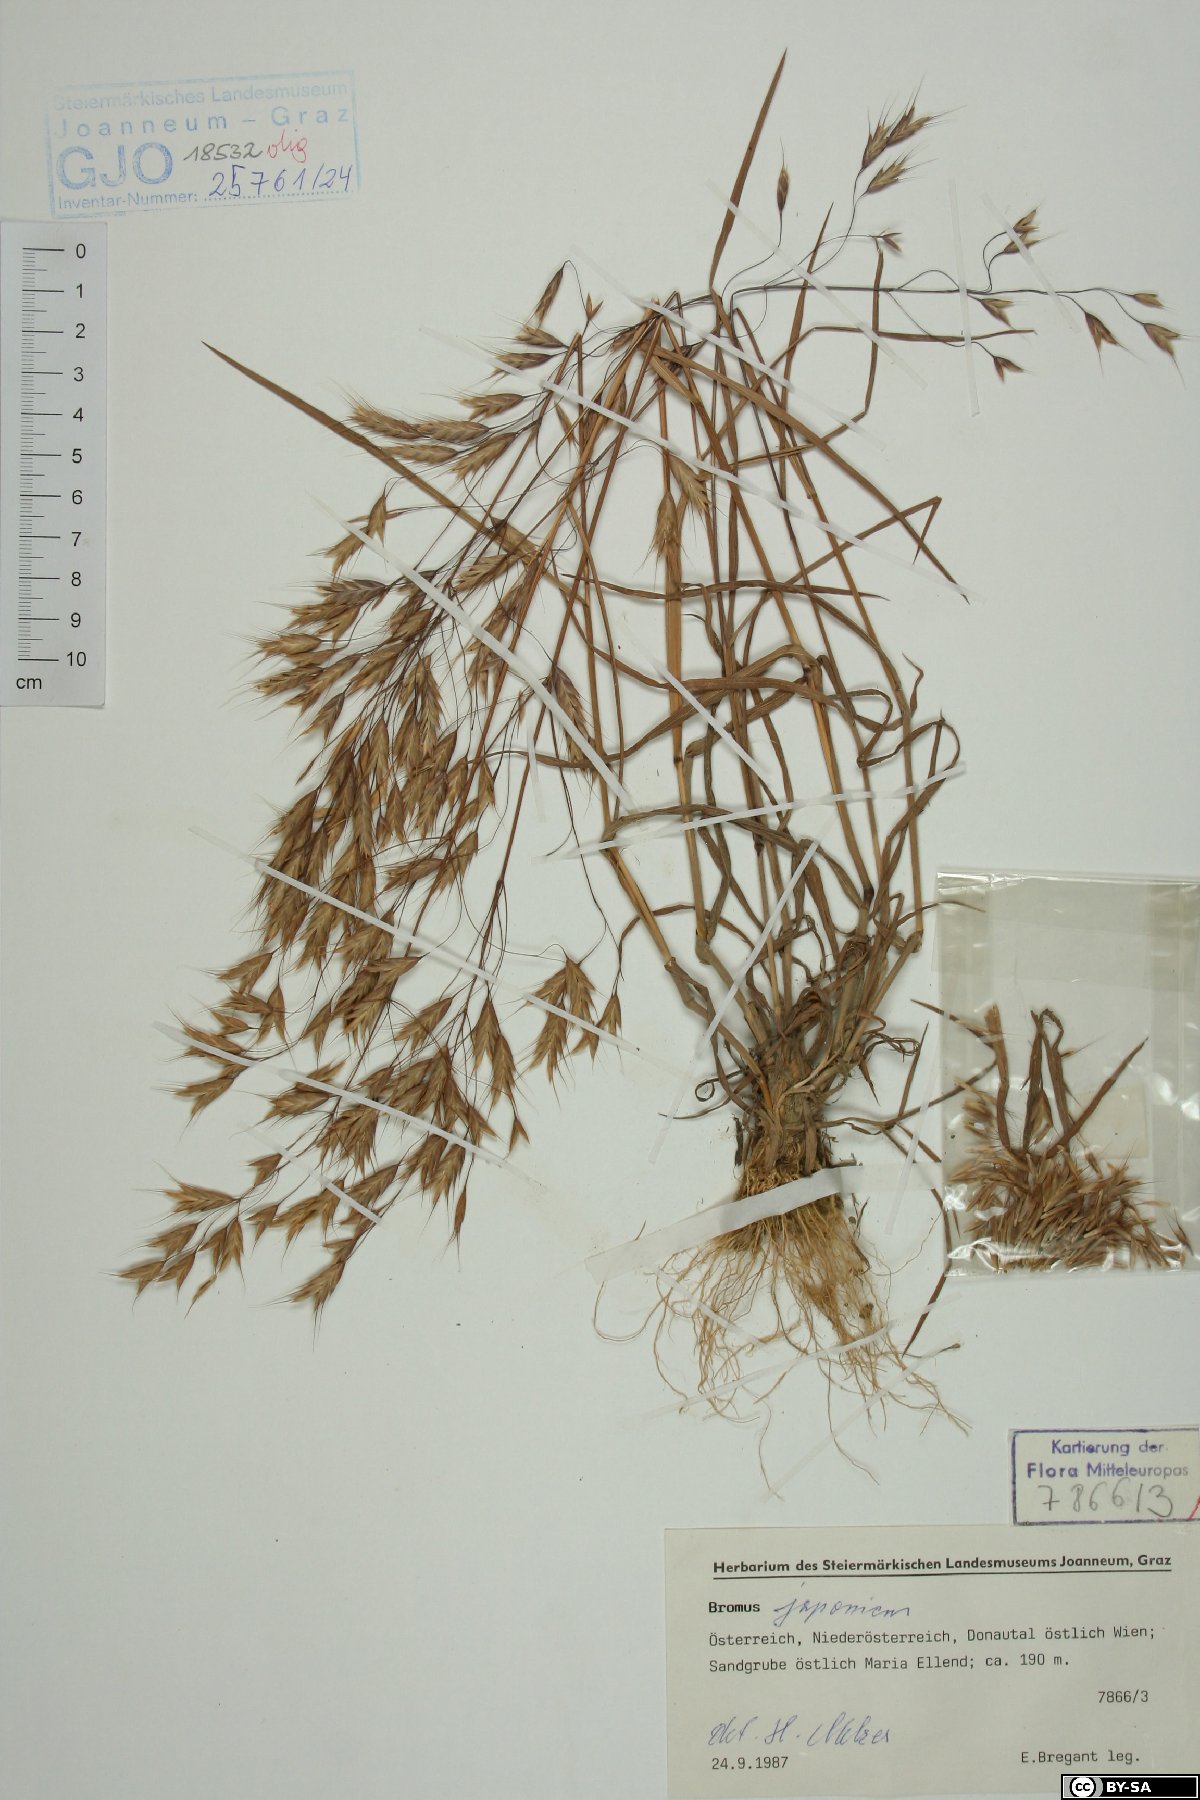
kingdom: Plantae
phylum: Tracheophyta
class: Liliopsida
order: Poales
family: Poaceae
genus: Bromus
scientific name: Bromus japonicus
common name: Japanese brome
